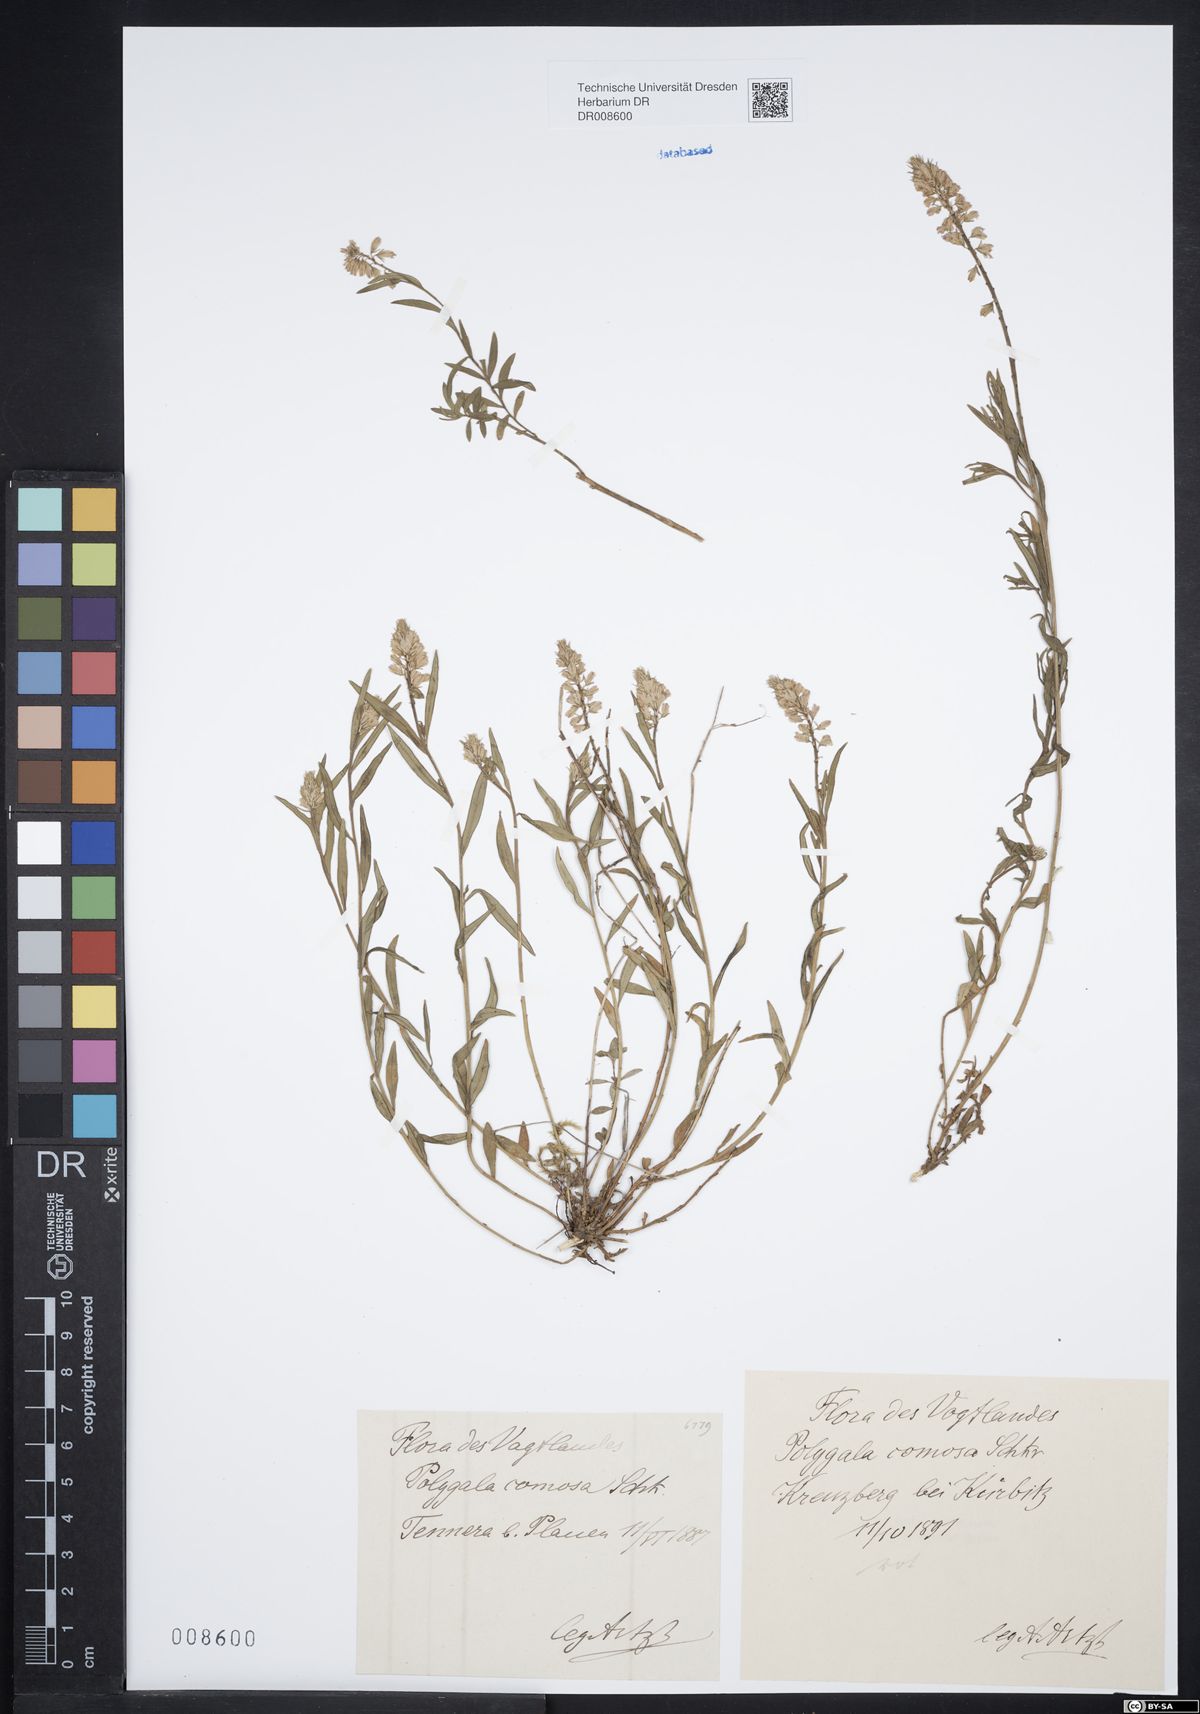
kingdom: Plantae
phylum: Tracheophyta
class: Magnoliopsida
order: Fabales
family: Polygalaceae
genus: Polygala
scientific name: Polygala comosa
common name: Tufted milkwort
